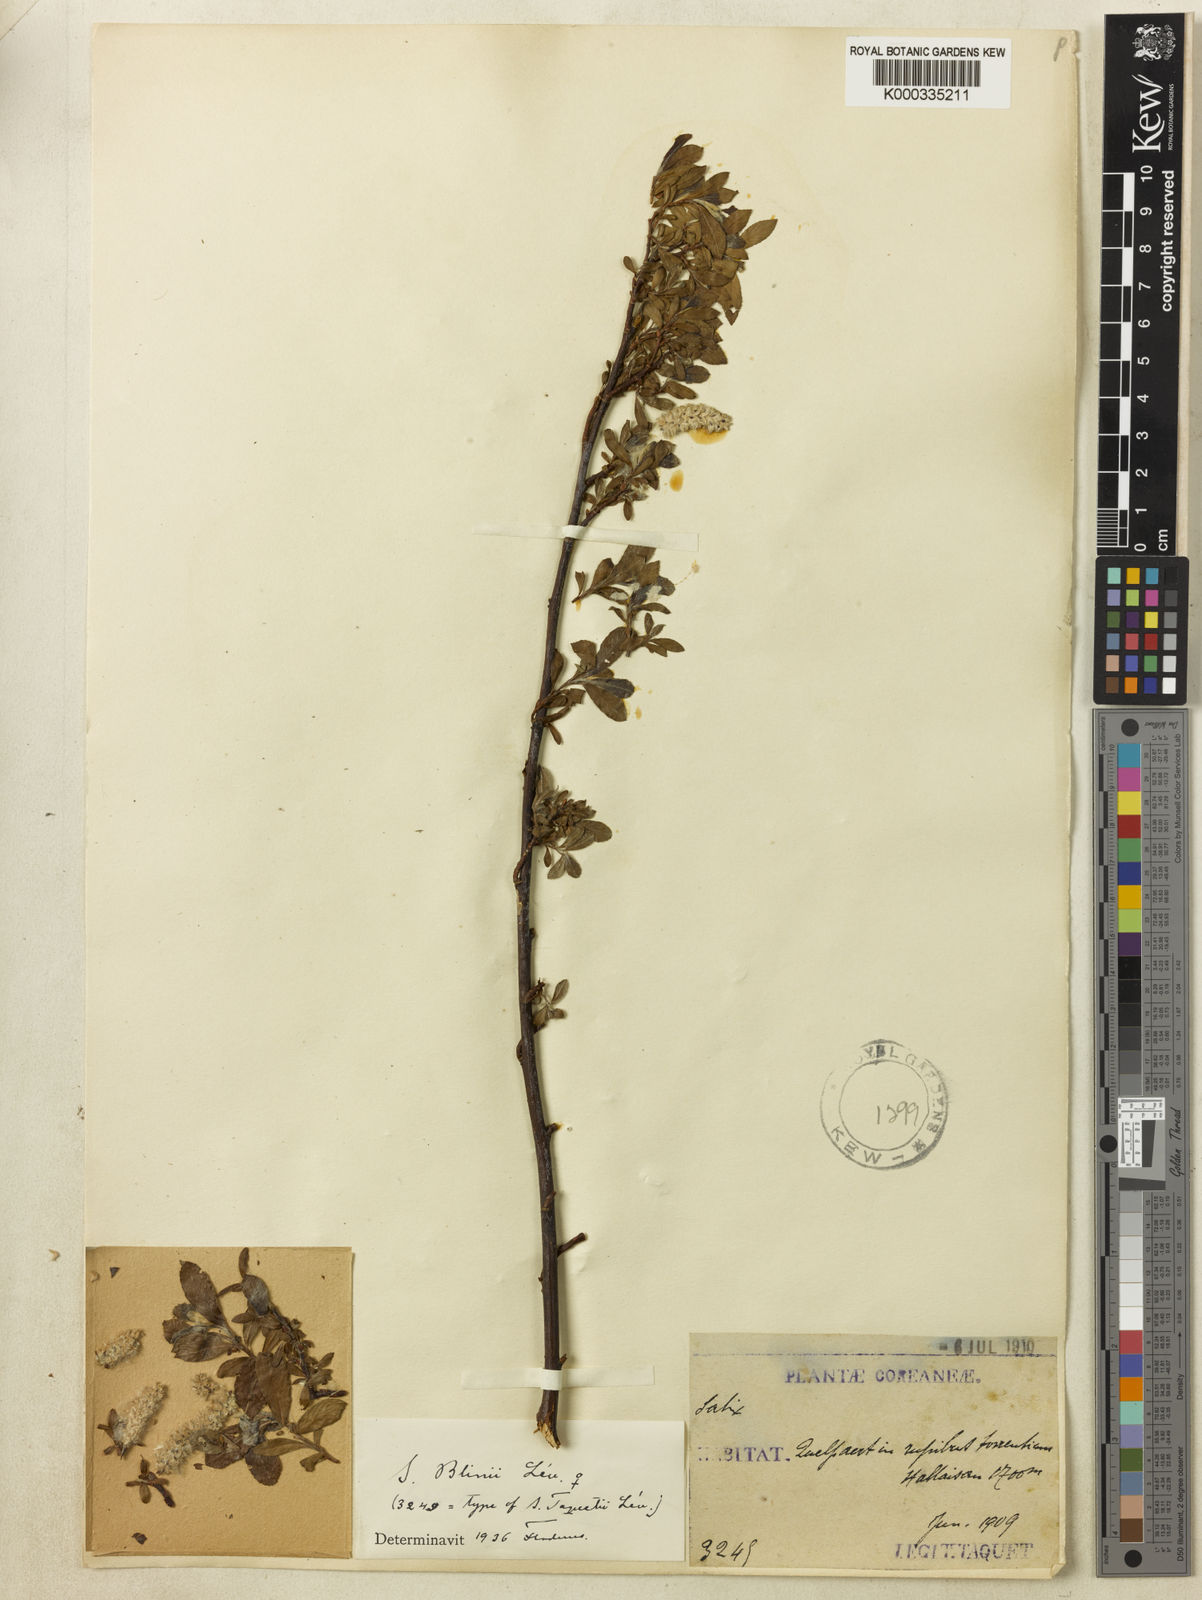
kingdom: Plantae
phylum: Tracheophyta
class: Magnoliopsida
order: Malpighiales
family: Salicaceae
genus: Salix
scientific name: Salix
